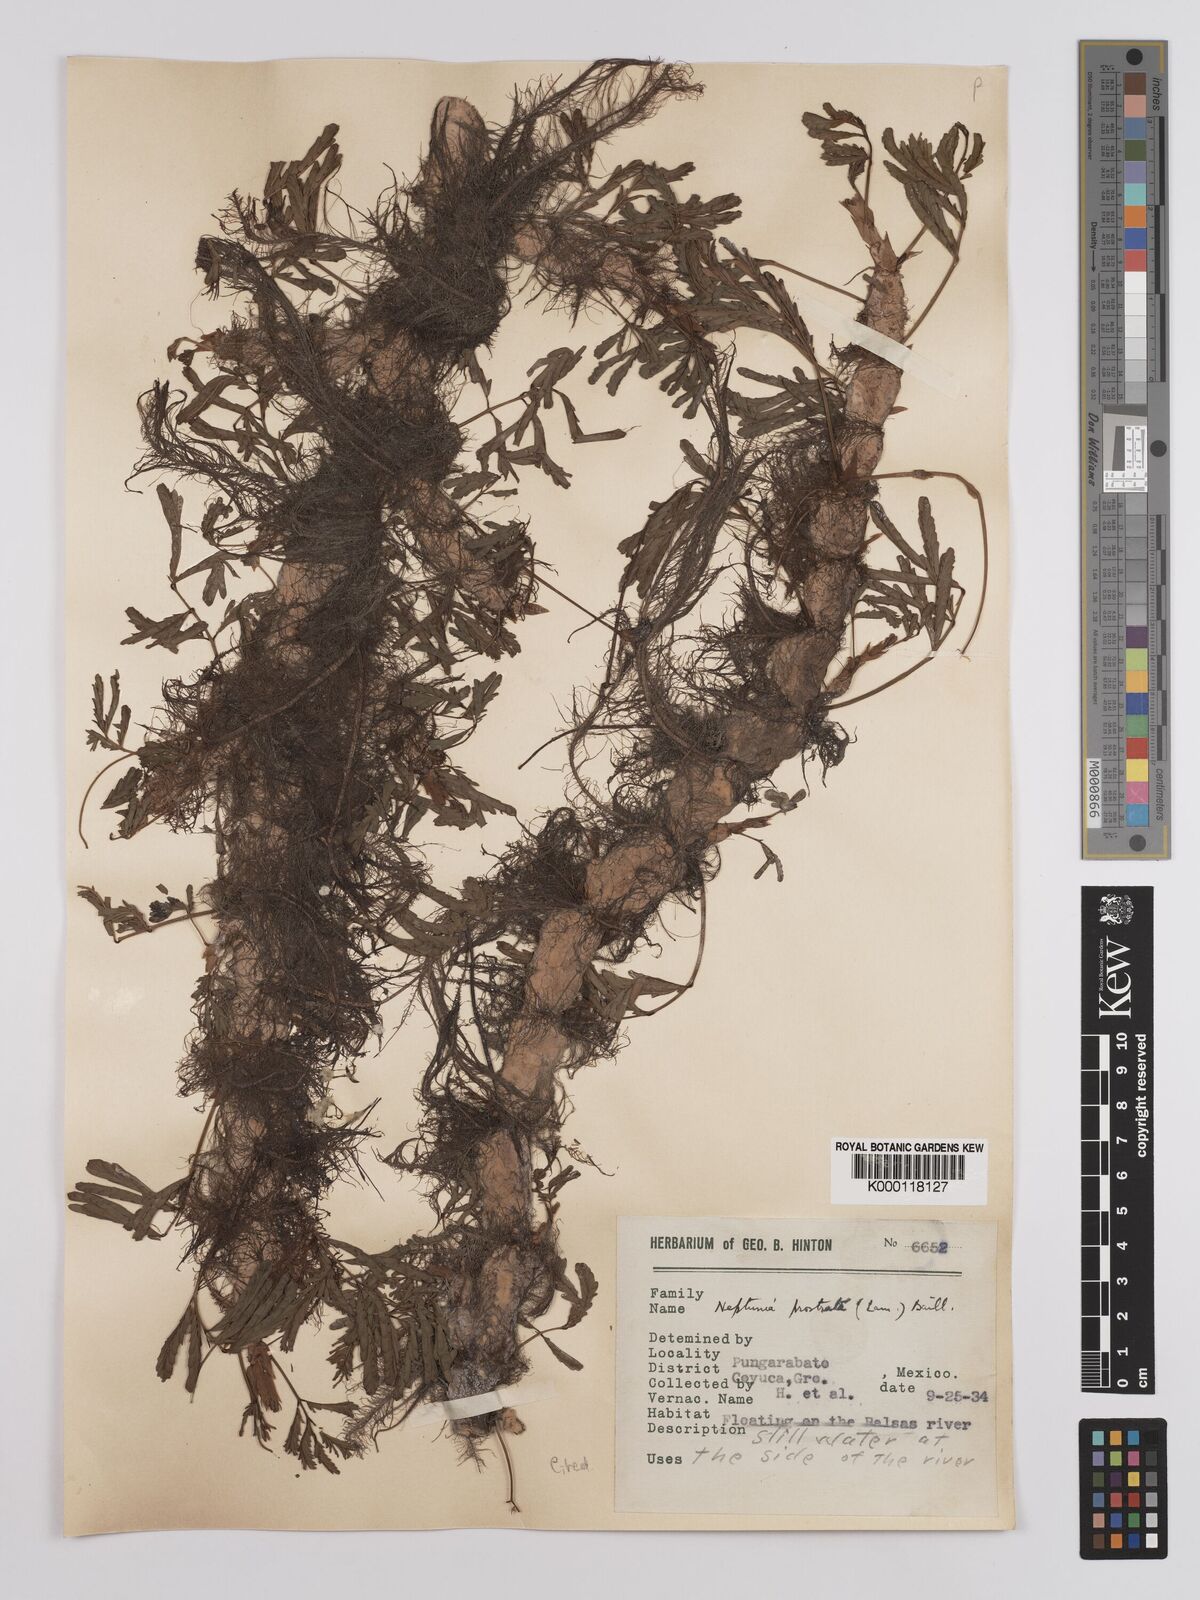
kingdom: Plantae
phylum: Tracheophyta
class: Magnoliopsida
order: Fabales
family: Fabaceae
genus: Neptunia
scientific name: Neptunia
